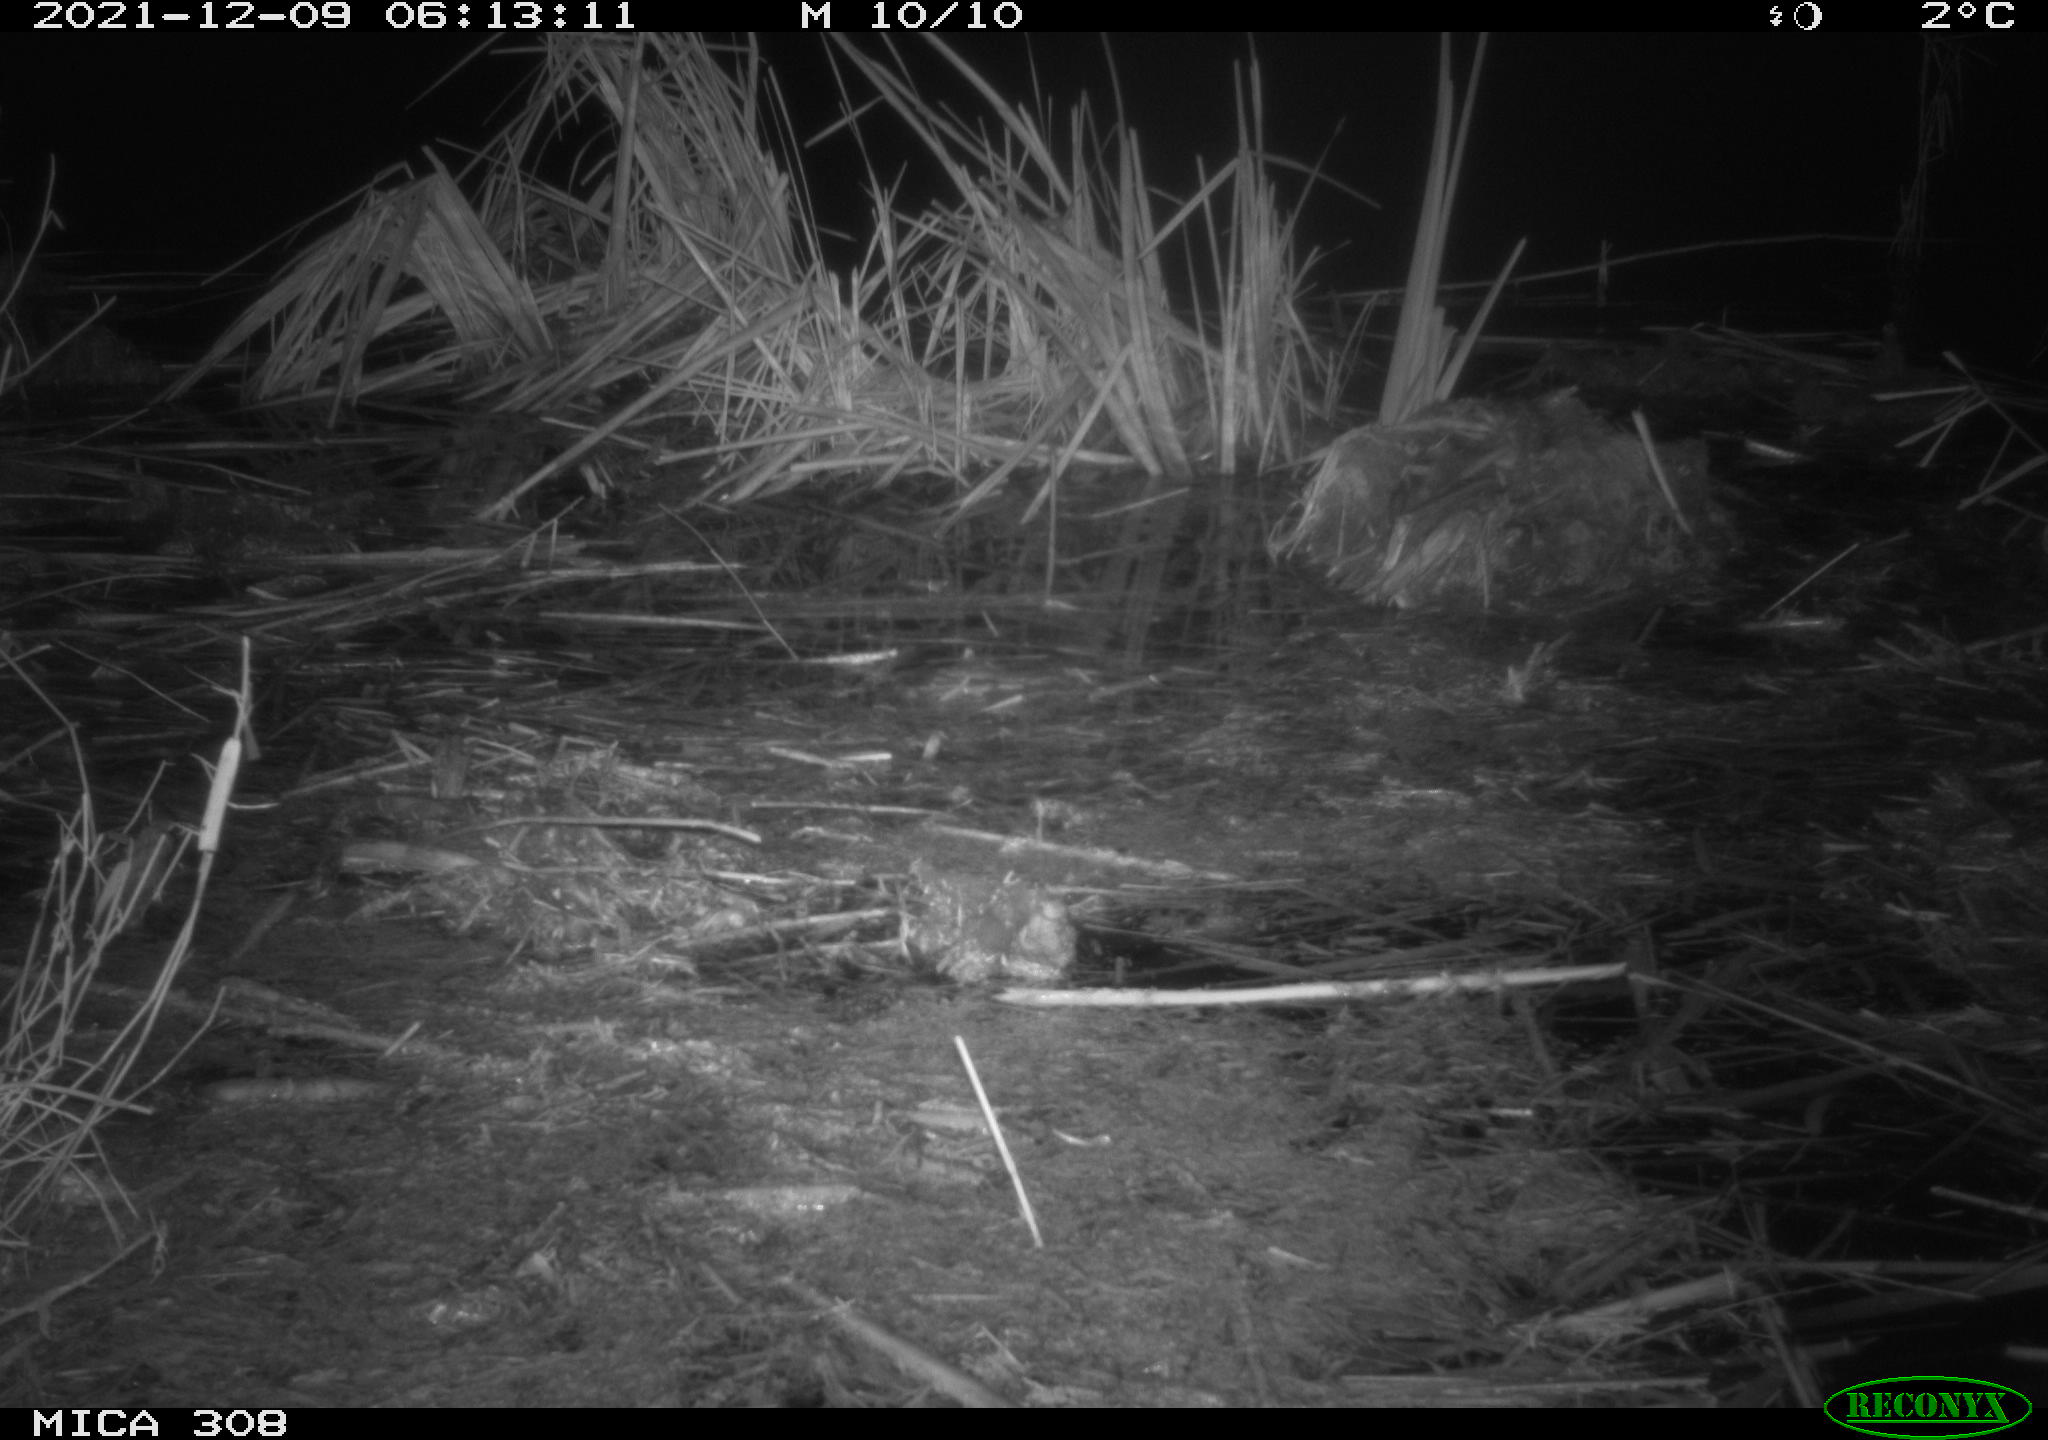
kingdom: Animalia
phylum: Chordata
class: Mammalia
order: Rodentia
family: Muridae
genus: Rattus
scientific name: Rattus norvegicus
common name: Brown rat
